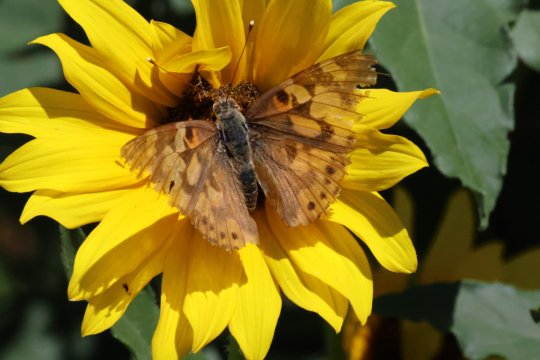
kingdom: Animalia
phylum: Arthropoda
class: Insecta
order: Lepidoptera
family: Nymphalidae
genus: Vanessa
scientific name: Vanessa cardui
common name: Painted Lady
